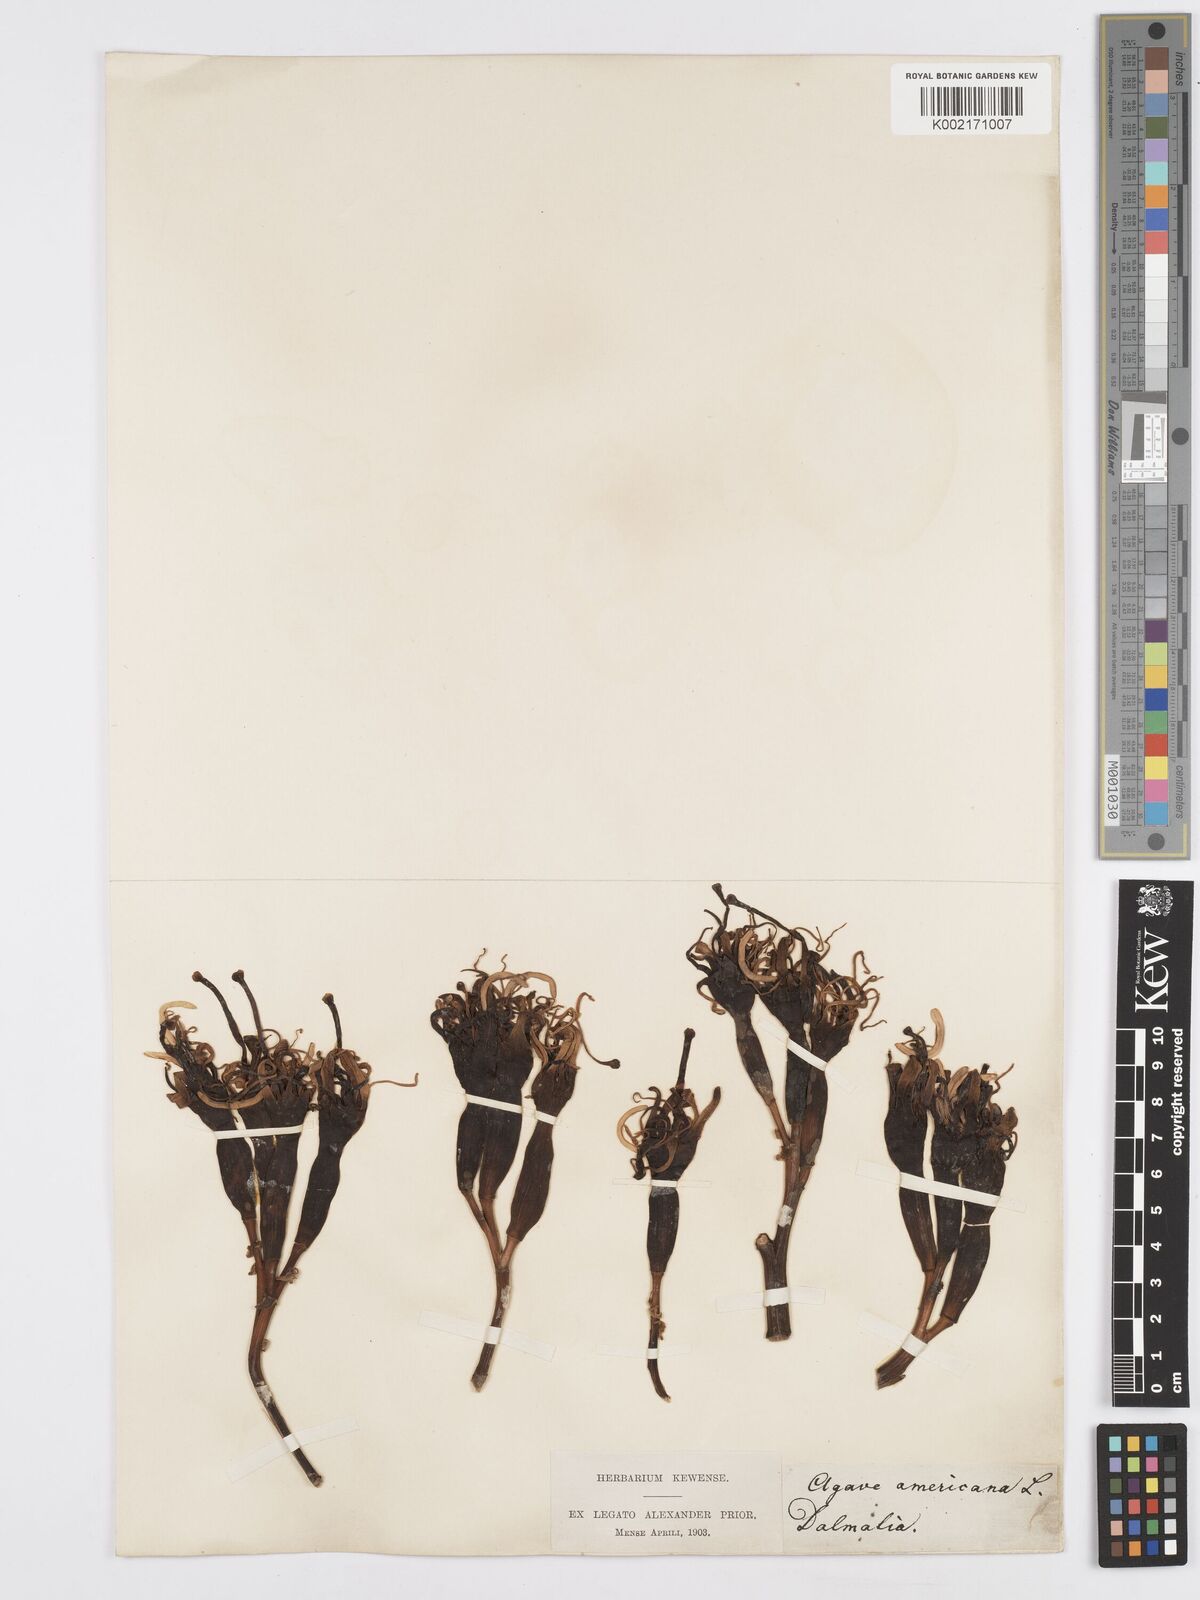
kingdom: Plantae
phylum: Tracheophyta
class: Liliopsida
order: Asparagales
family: Asparagaceae
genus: Agave
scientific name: Agave americana
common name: Centuryplant
